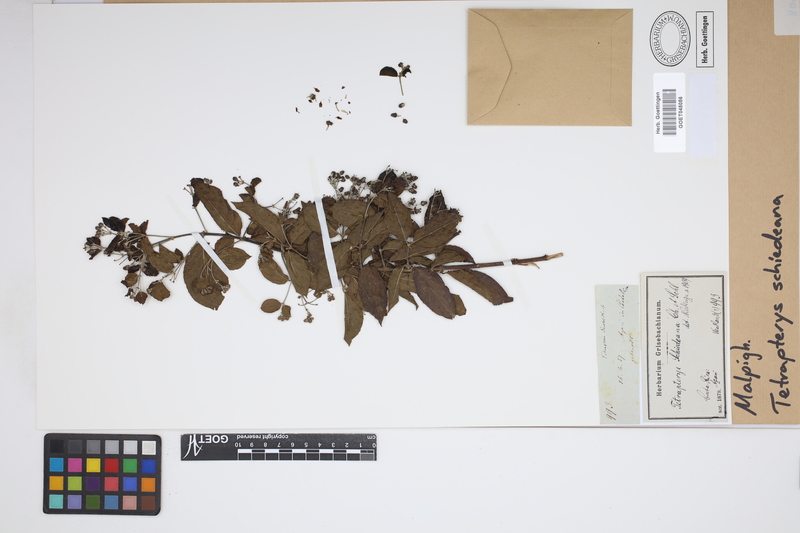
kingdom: Plantae
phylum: Tracheophyta
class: Magnoliopsida
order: Malpighiales
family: Malpighiaceae
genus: Tetrapterys
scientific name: Tetrapterys schiedeana
